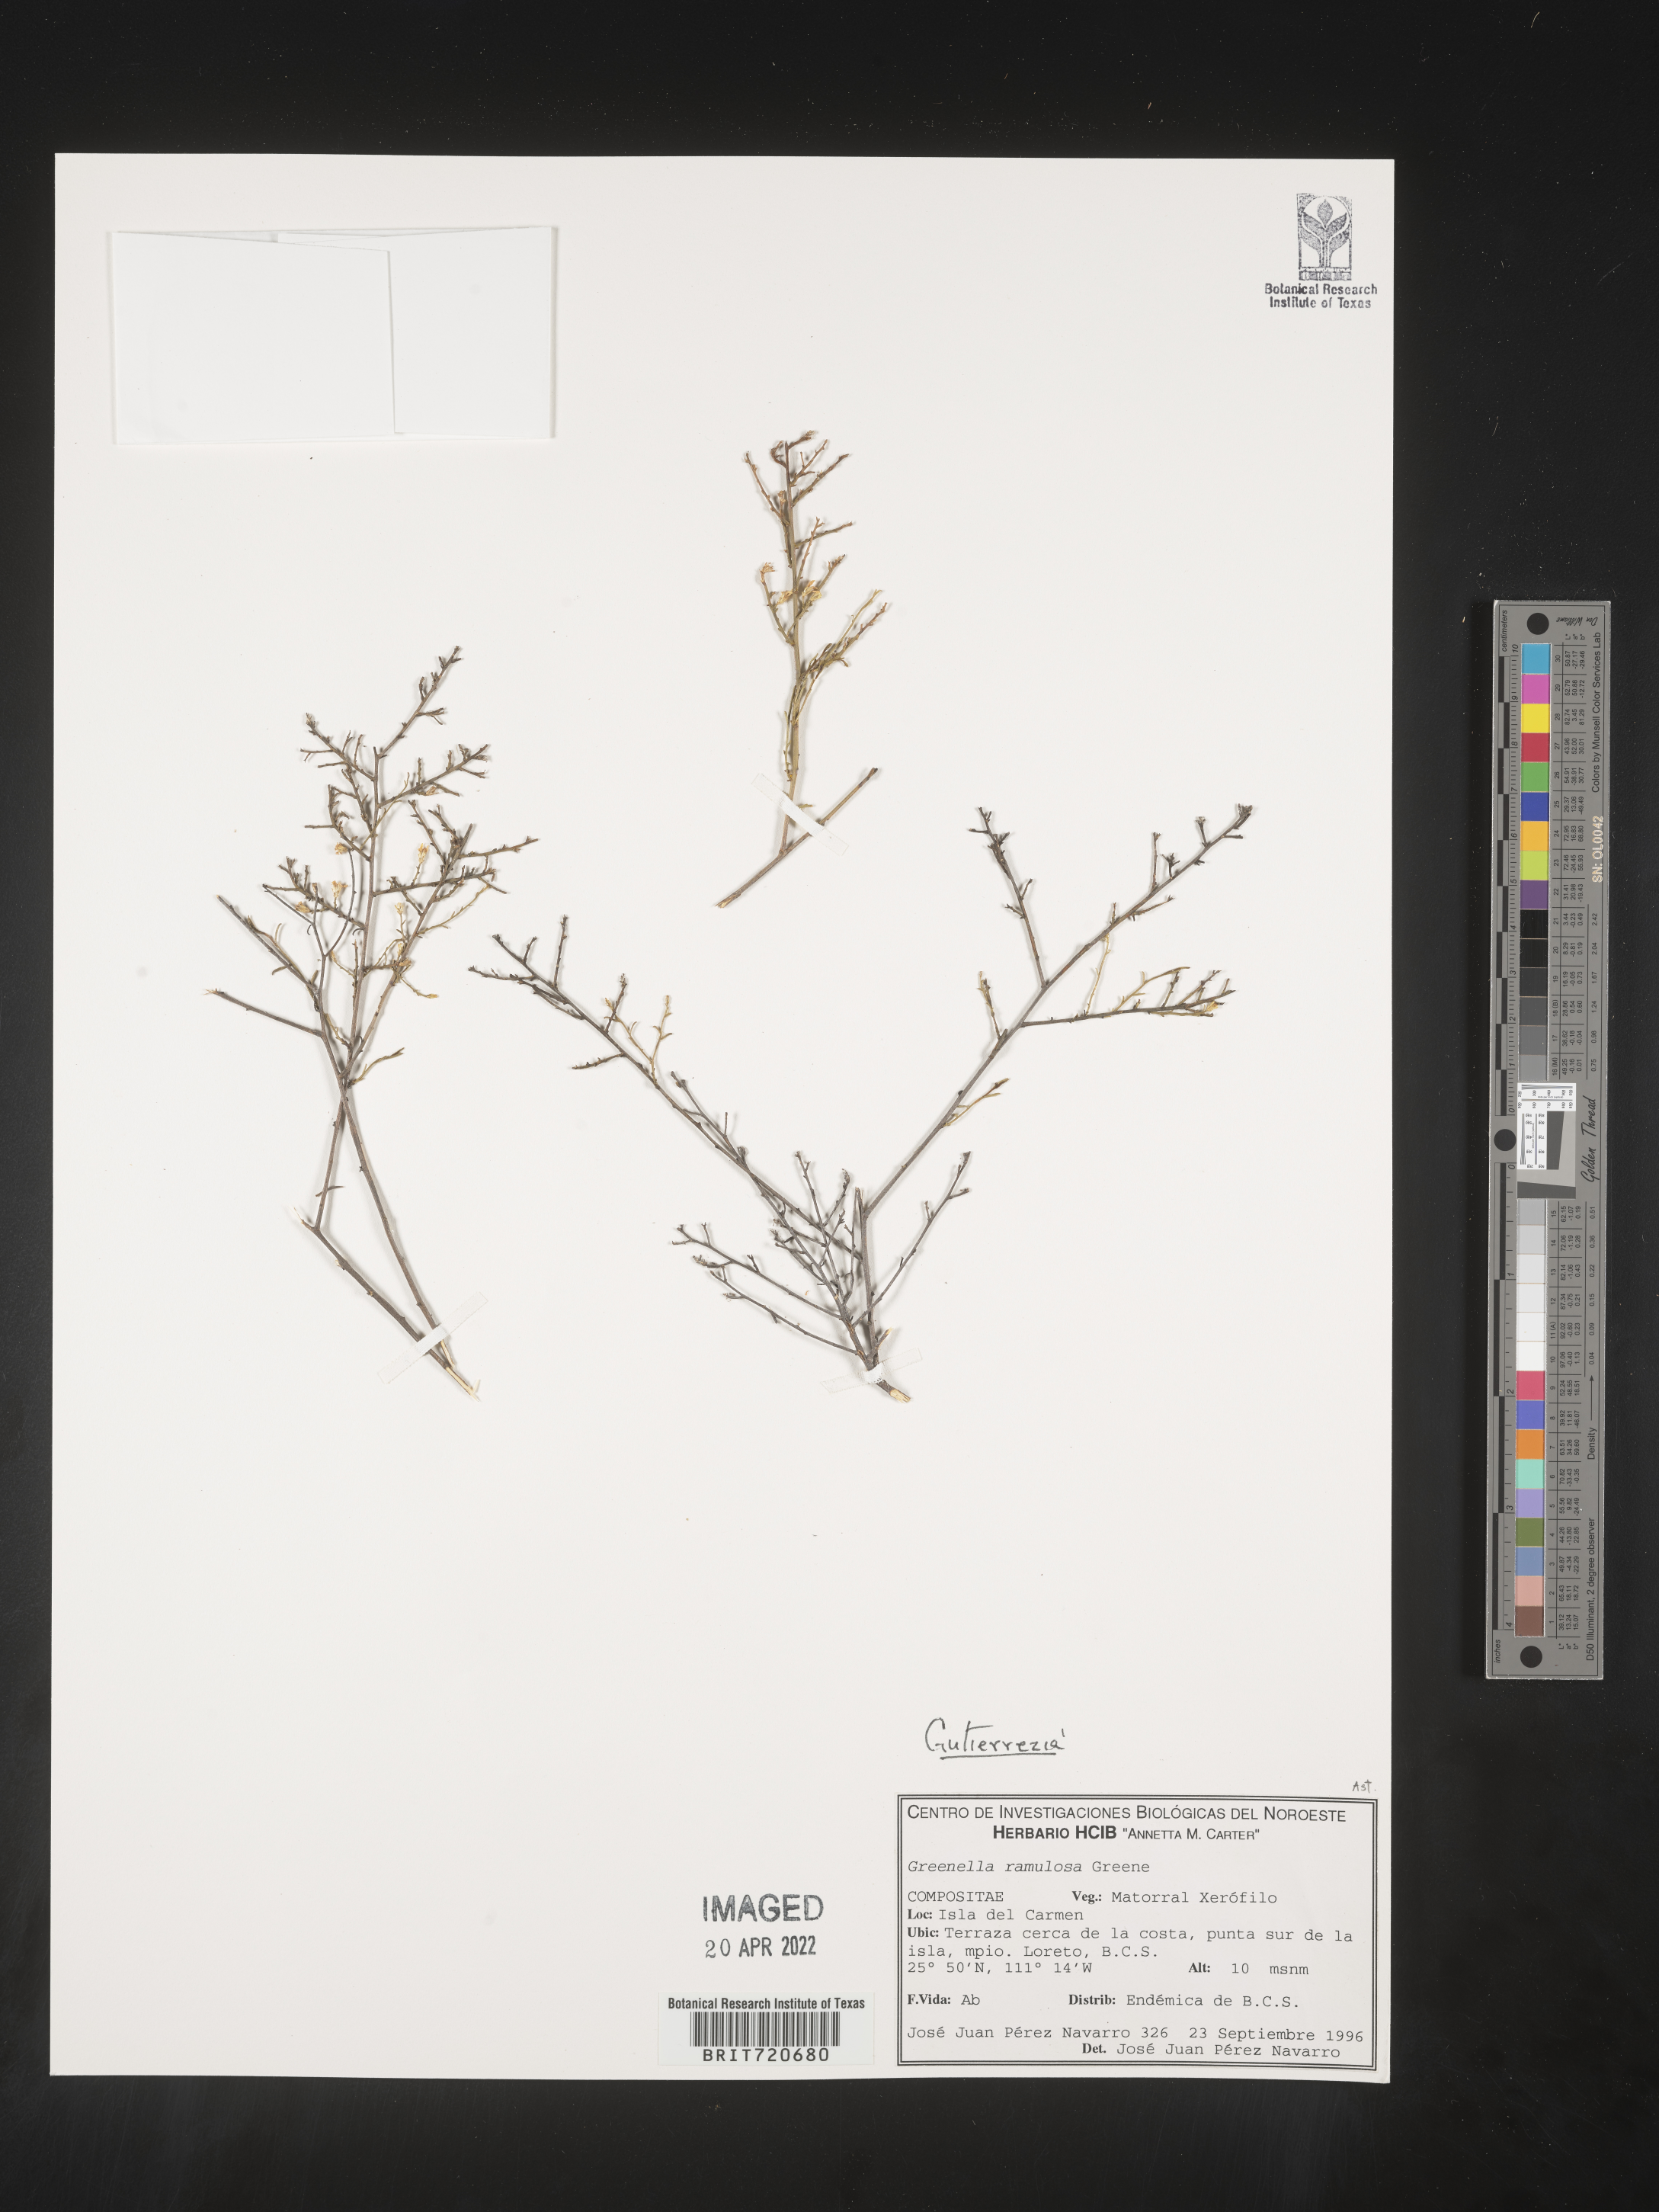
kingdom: Plantae
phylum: Tracheophyta
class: Magnoliopsida
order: Asterales
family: Asteraceae
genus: Gutierrezia
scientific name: Gutierrezia
